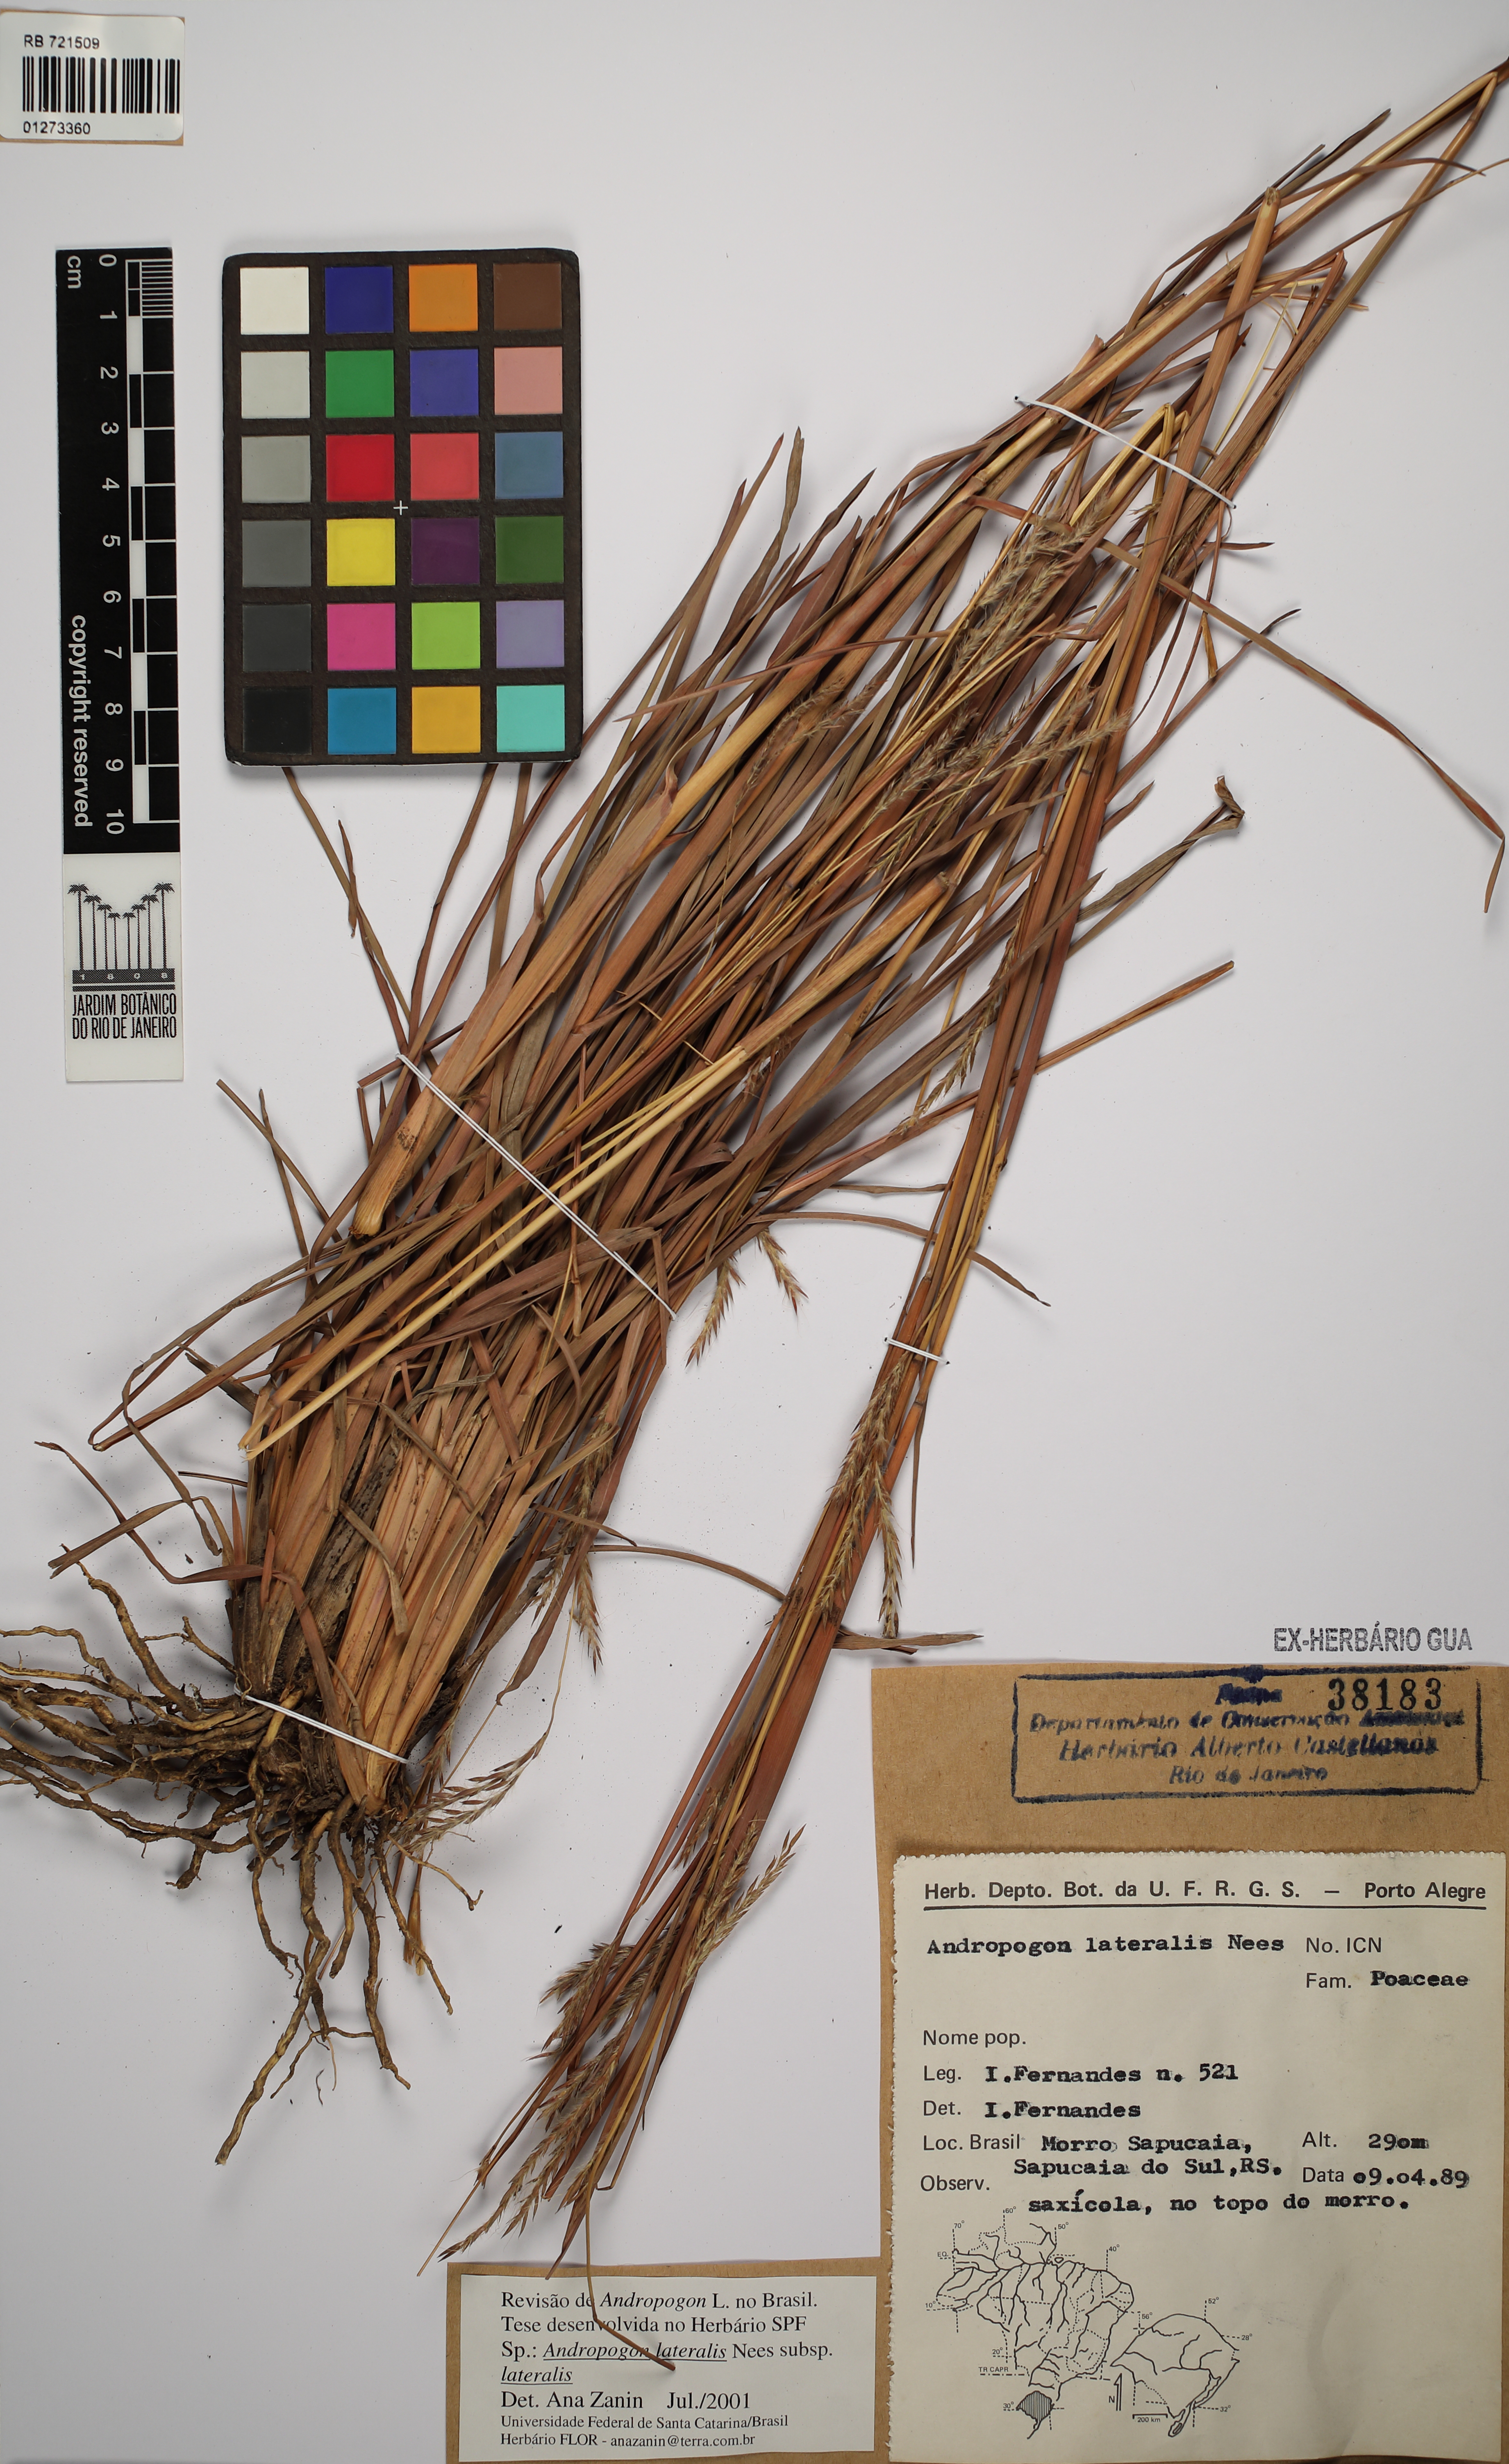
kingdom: Plantae
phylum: Tracheophyta
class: Liliopsida
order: Poales
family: Poaceae
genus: Andropogon
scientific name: Andropogon lateralis
